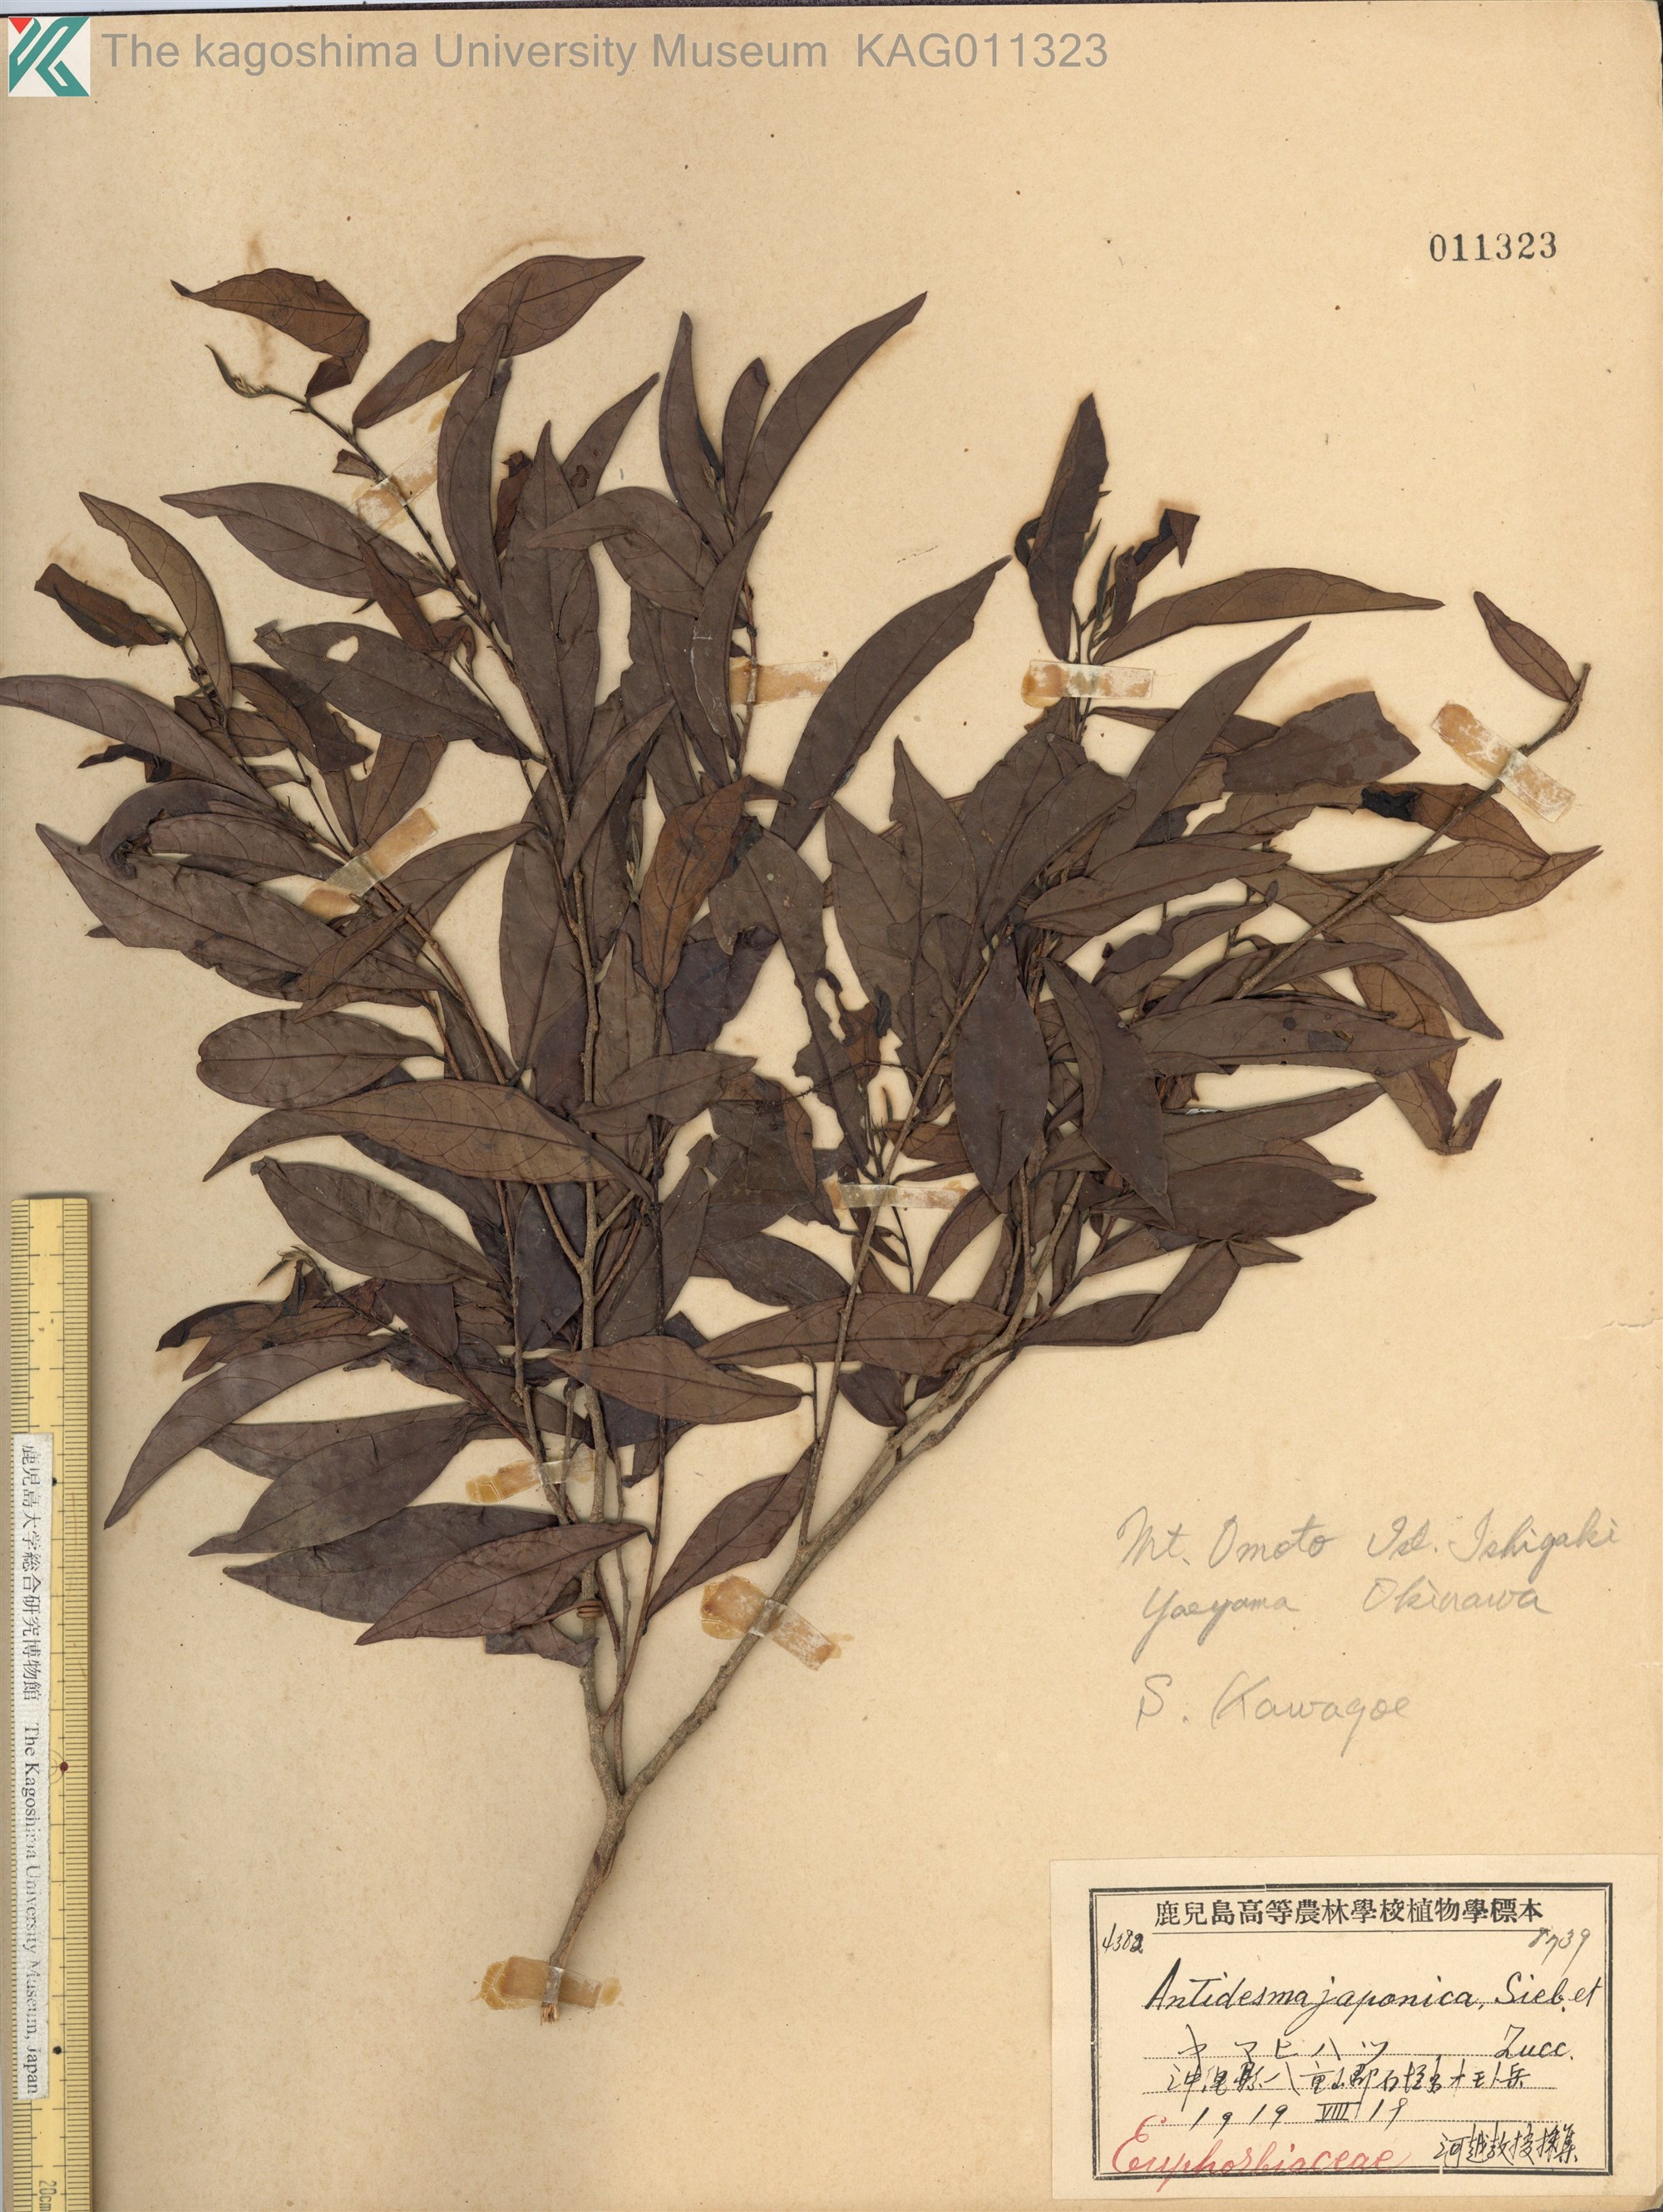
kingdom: Plantae
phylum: Tracheophyta
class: Magnoliopsida
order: Malpighiales
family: Phyllanthaceae
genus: Antidesma
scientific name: Antidesma japonicum
